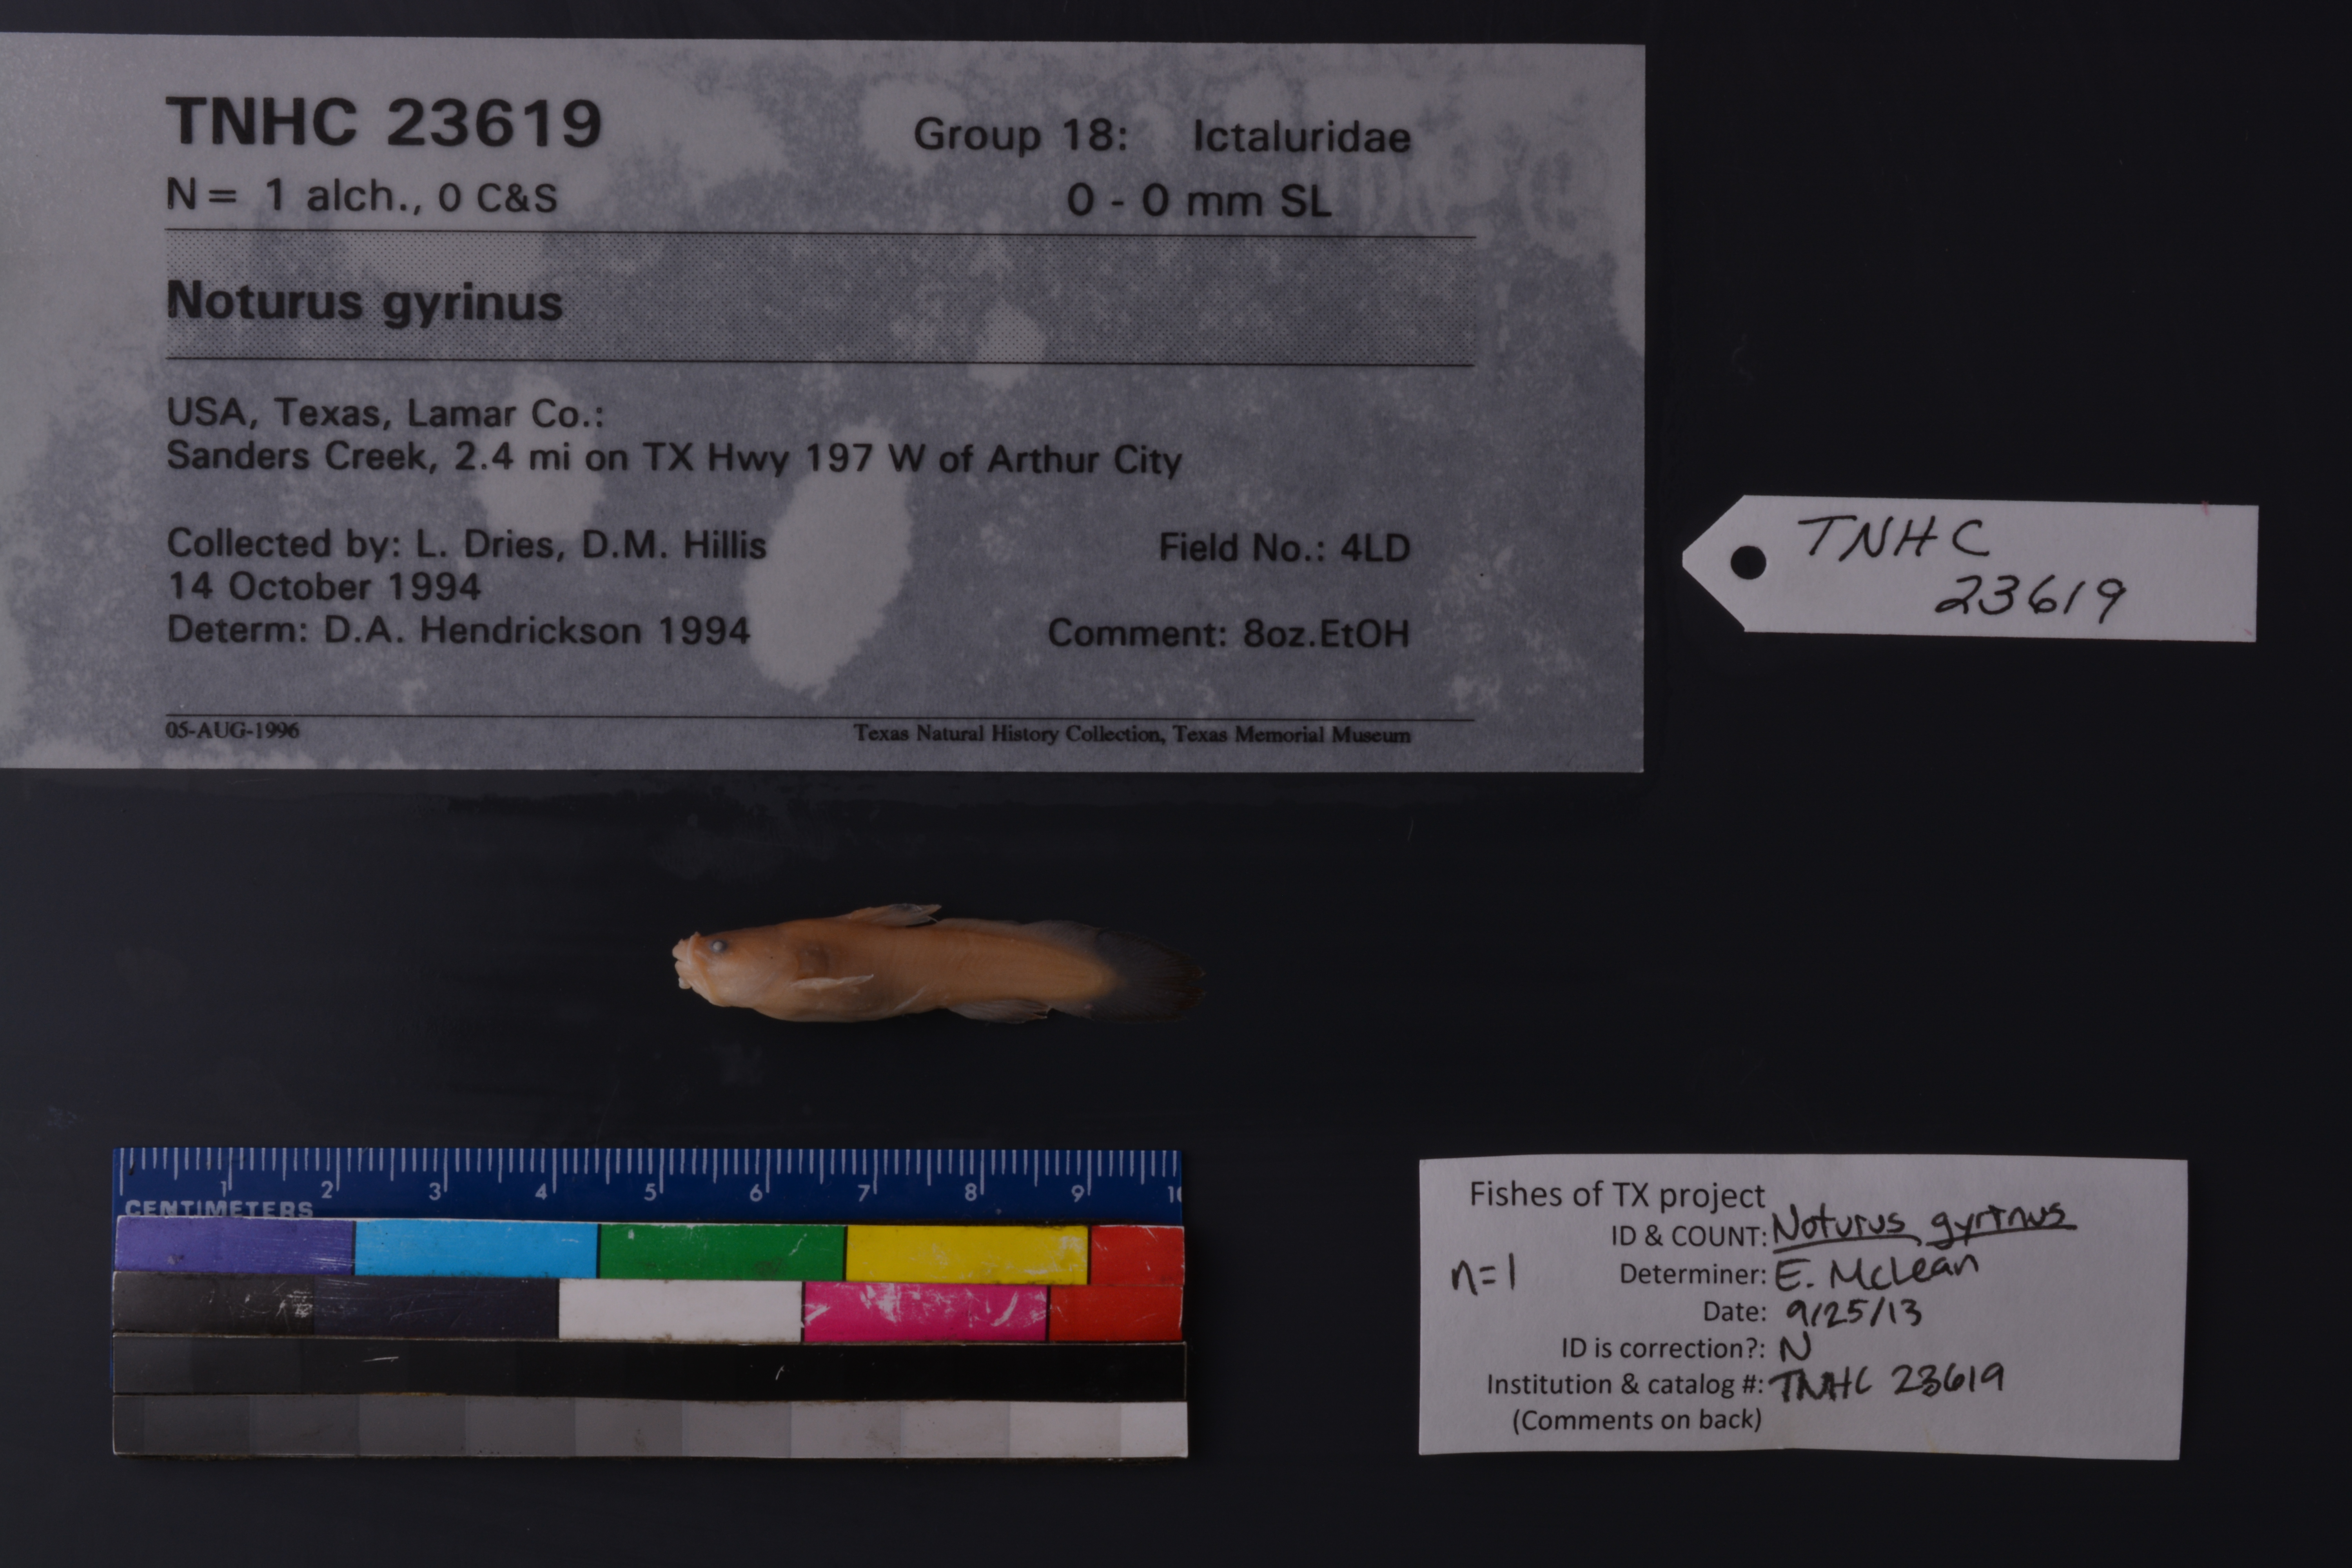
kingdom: Animalia
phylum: Chordata
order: Siluriformes
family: Ictaluridae
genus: Noturus
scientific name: Noturus gyrinus
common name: Tadpole madtom
